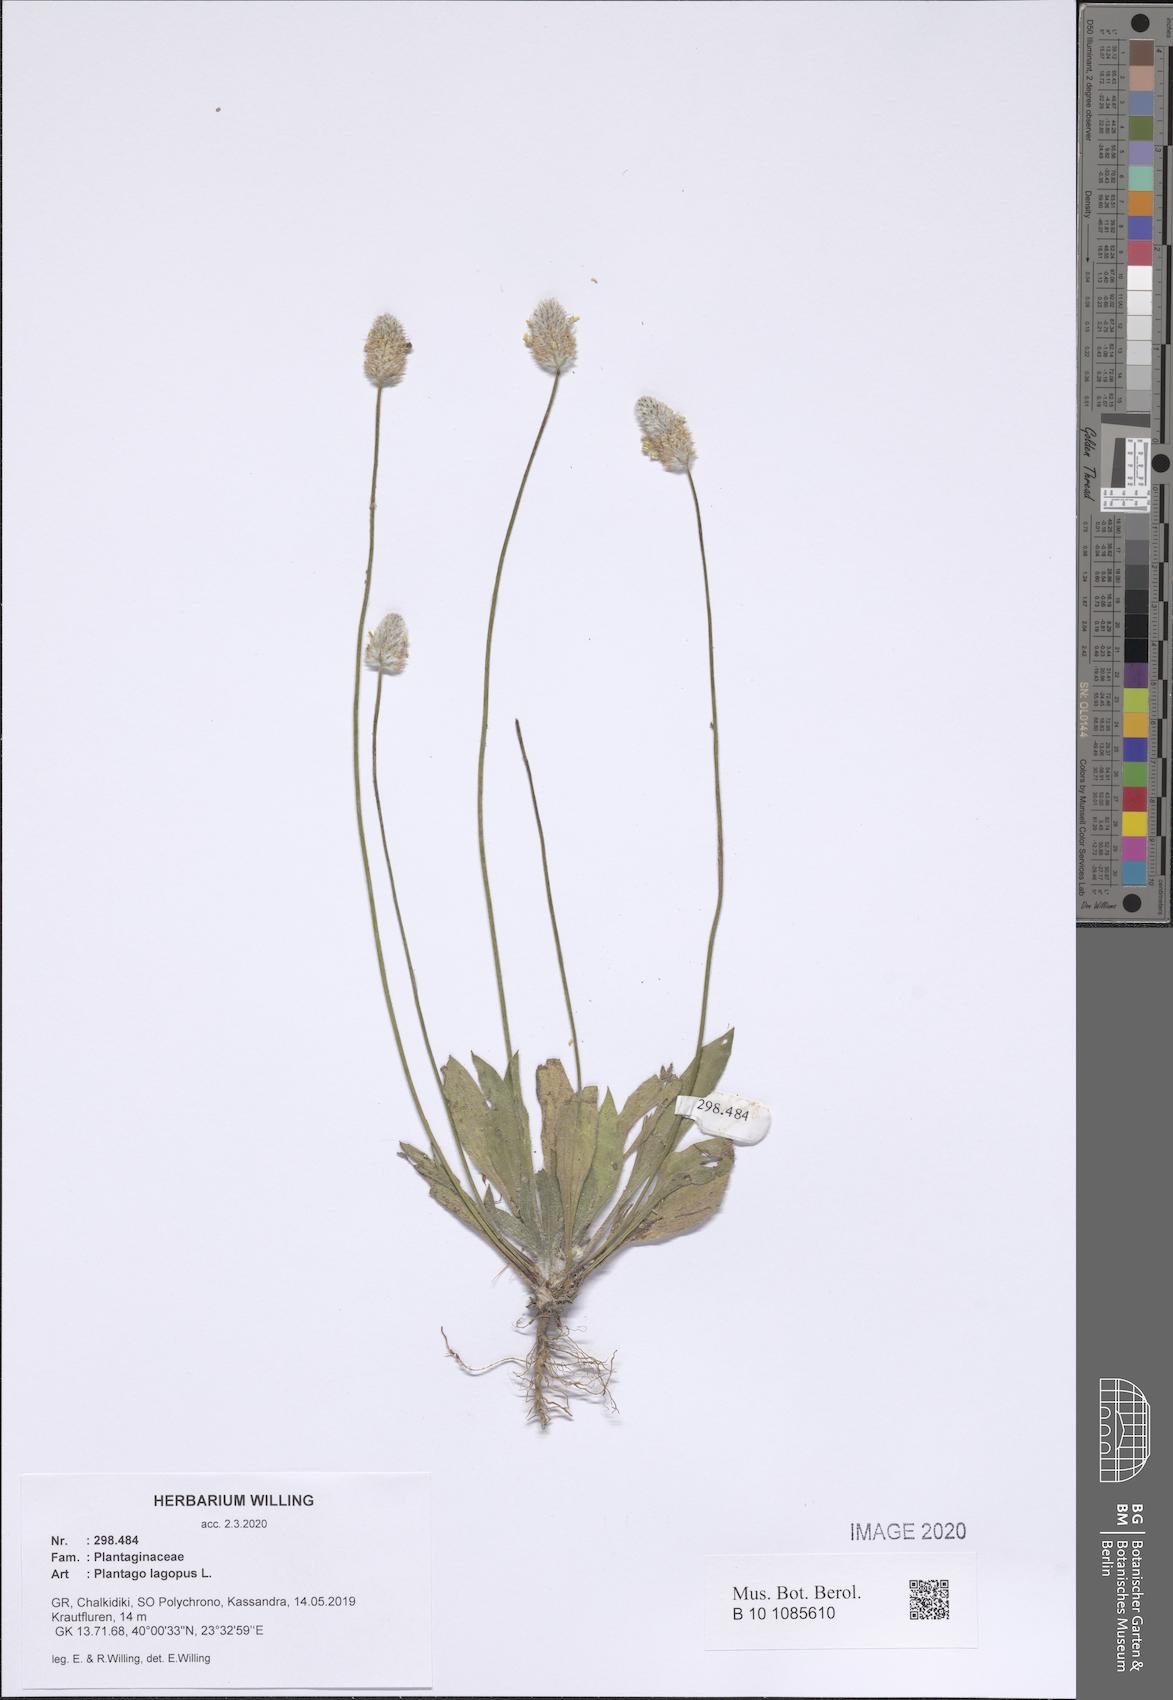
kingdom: Plantae
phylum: Tracheophyta
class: Magnoliopsida
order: Lamiales
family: Plantaginaceae
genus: Plantago
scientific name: Plantago lagopus
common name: Hare-foot plantain
